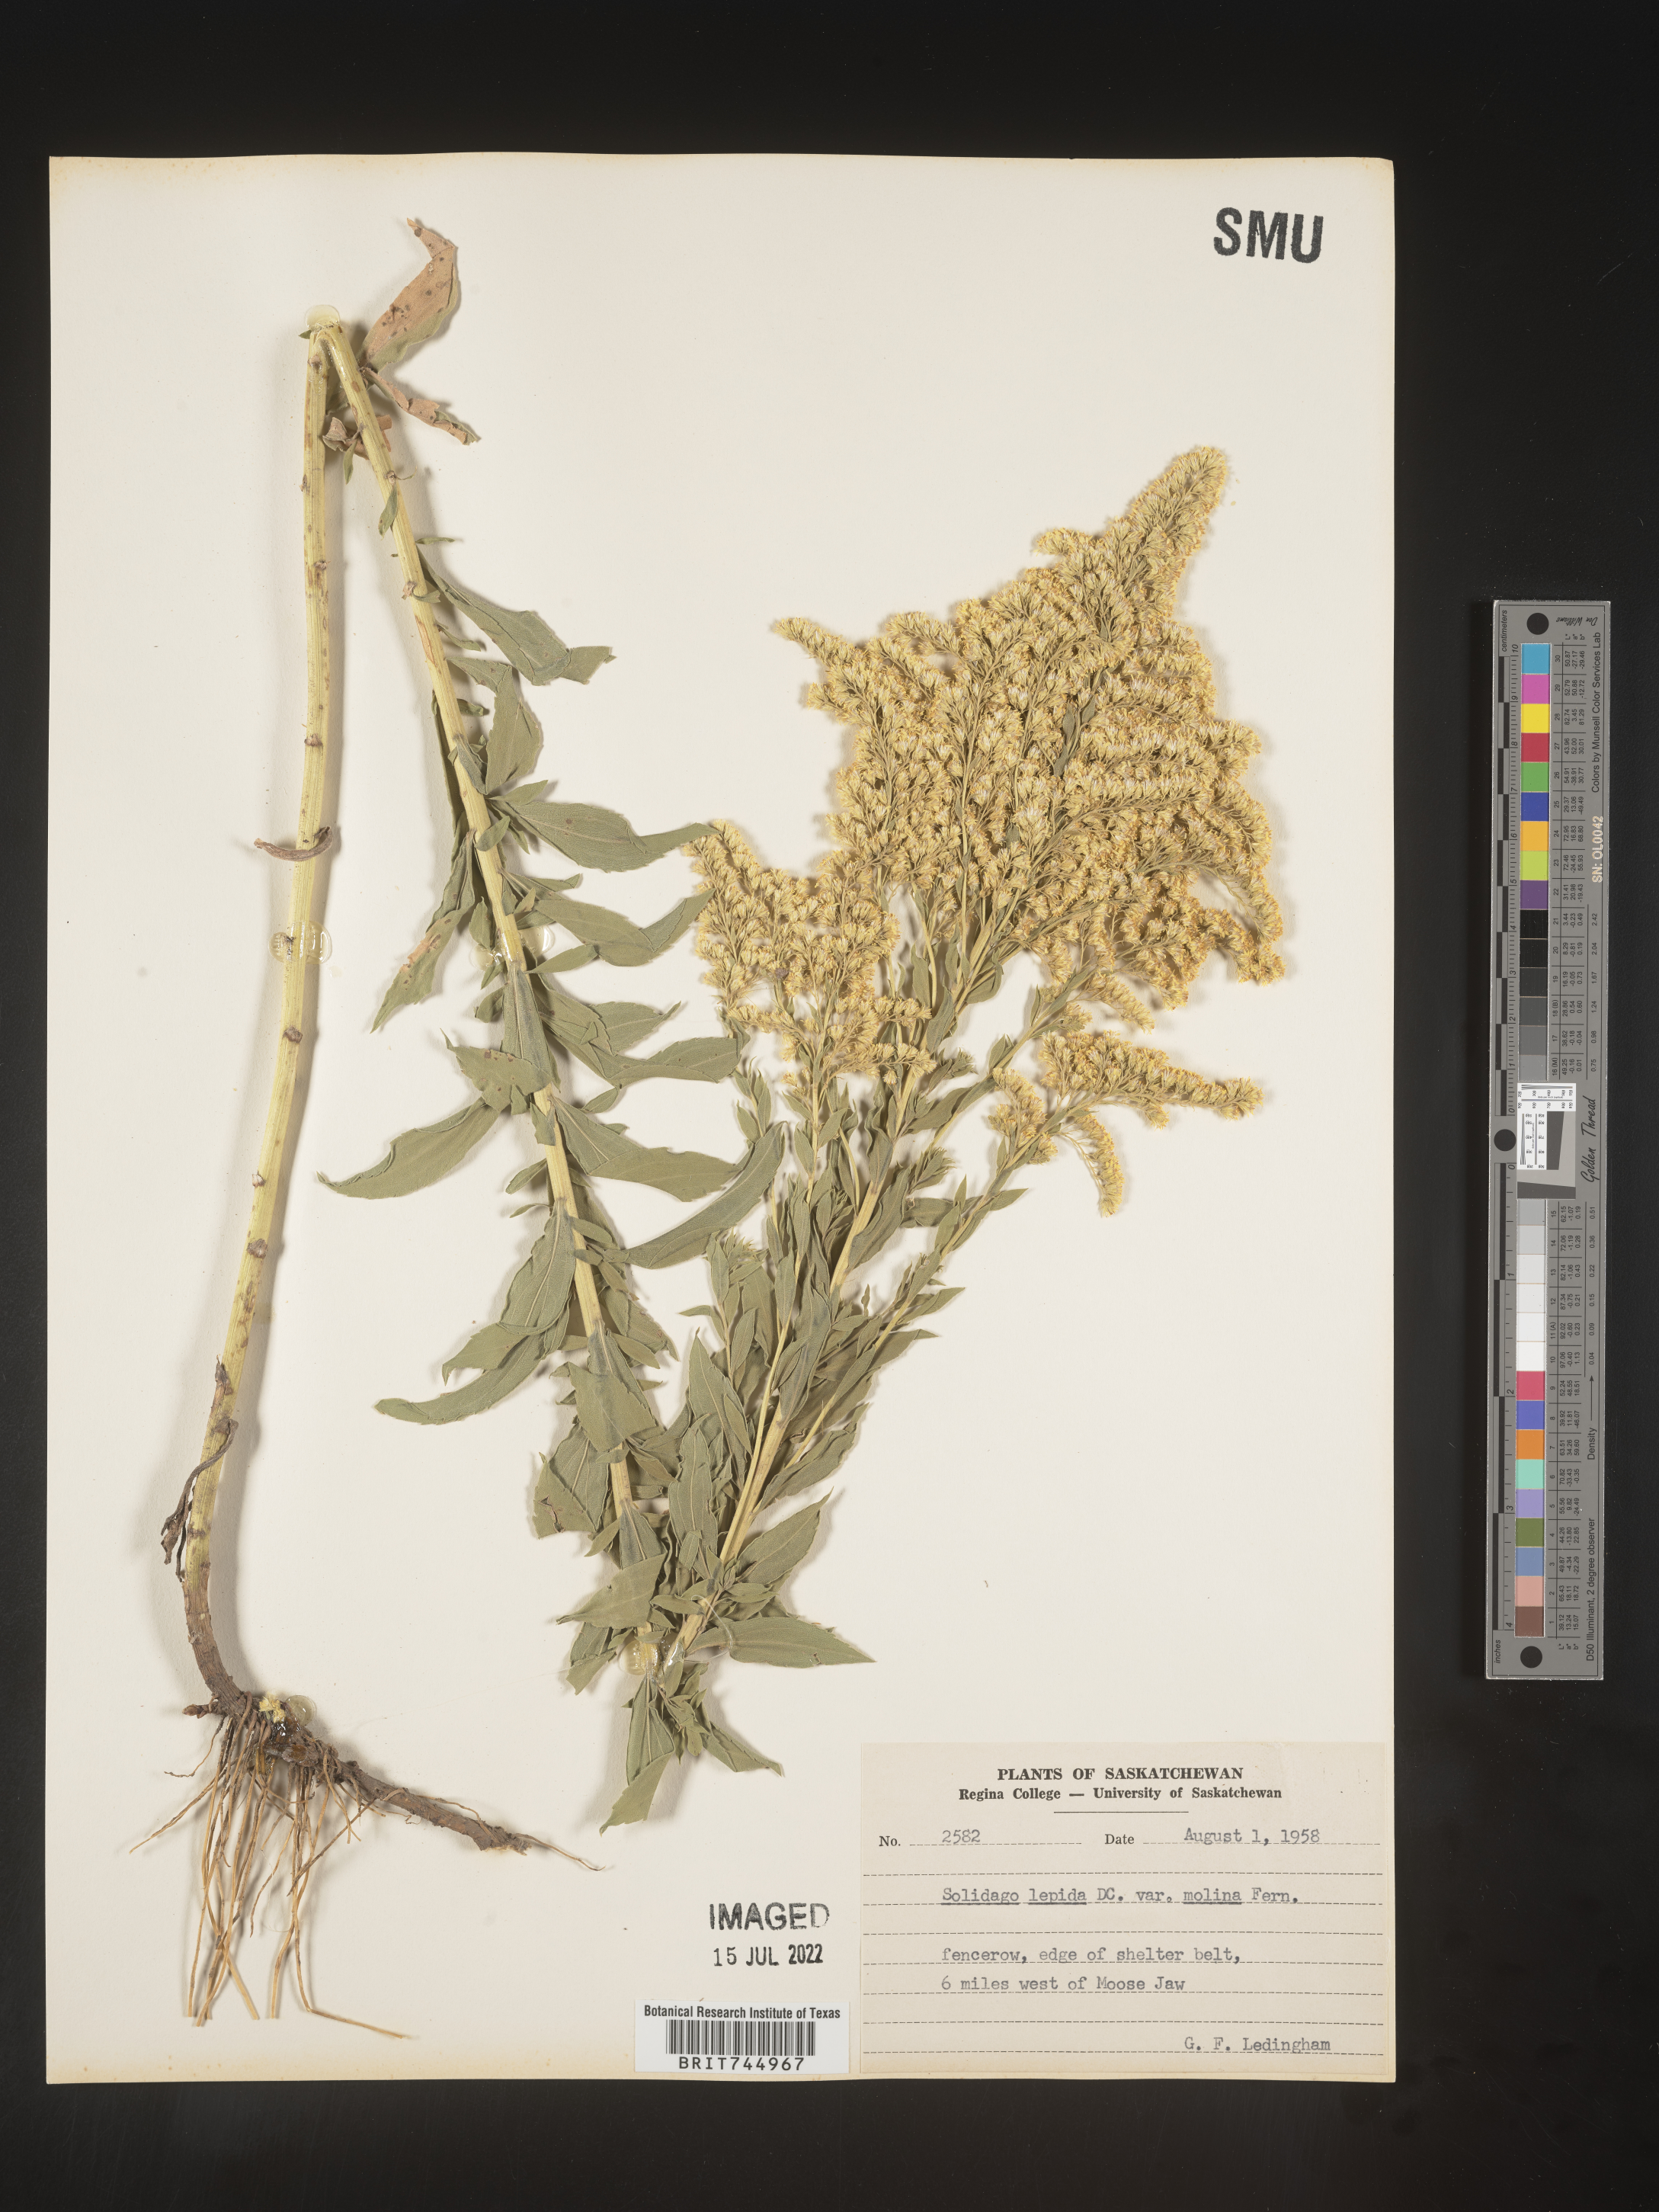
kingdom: Plantae
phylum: Tracheophyta
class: Magnoliopsida
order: Asterales
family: Asteraceae
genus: Solidago
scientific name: Solidago canadensis
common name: Canada goldenrod
